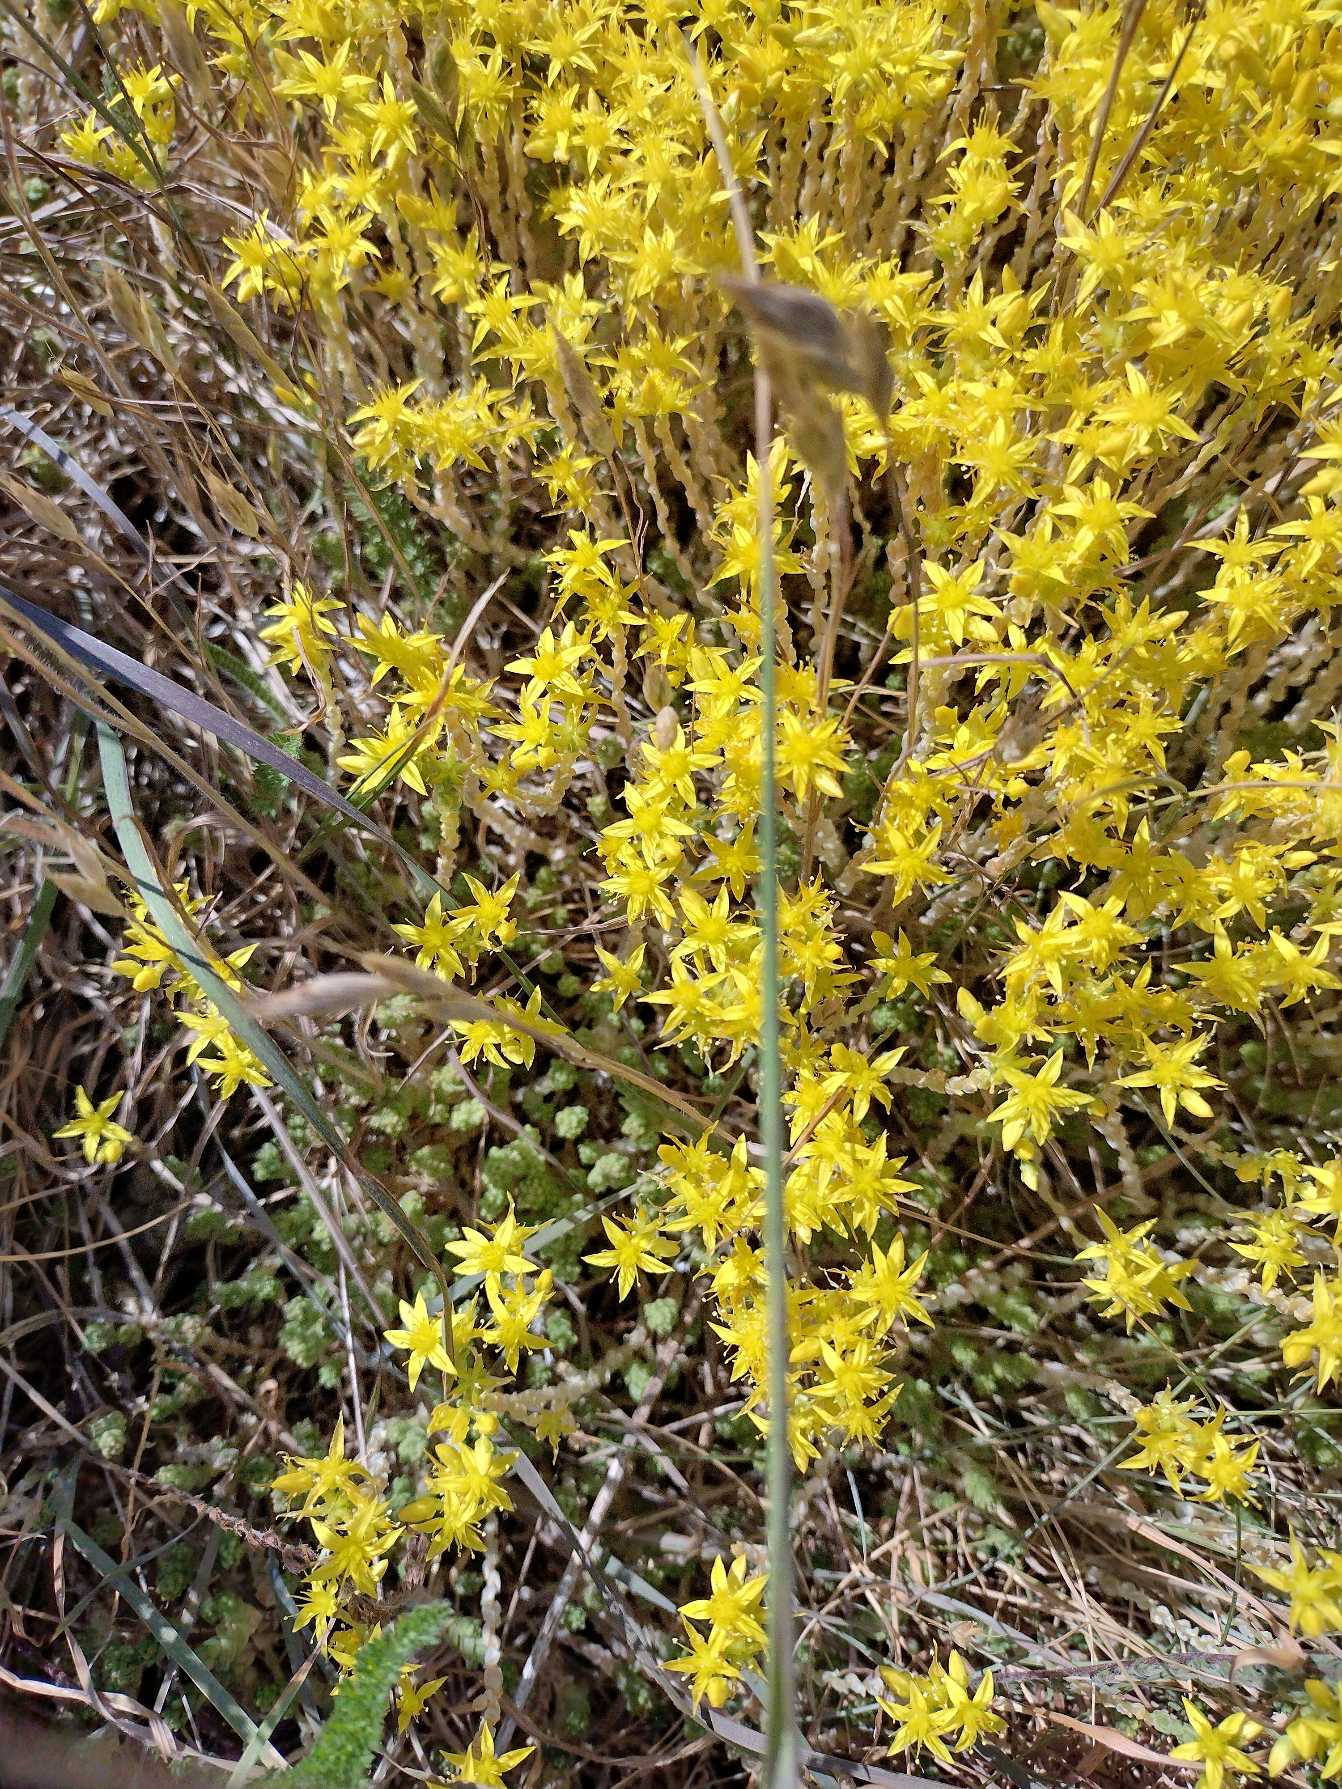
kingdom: Plantae
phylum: Tracheophyta
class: Magnoliopsida
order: Saxifragales
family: Crassulaceae
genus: Sedum
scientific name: Sedum acre
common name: Bidende stenurt
